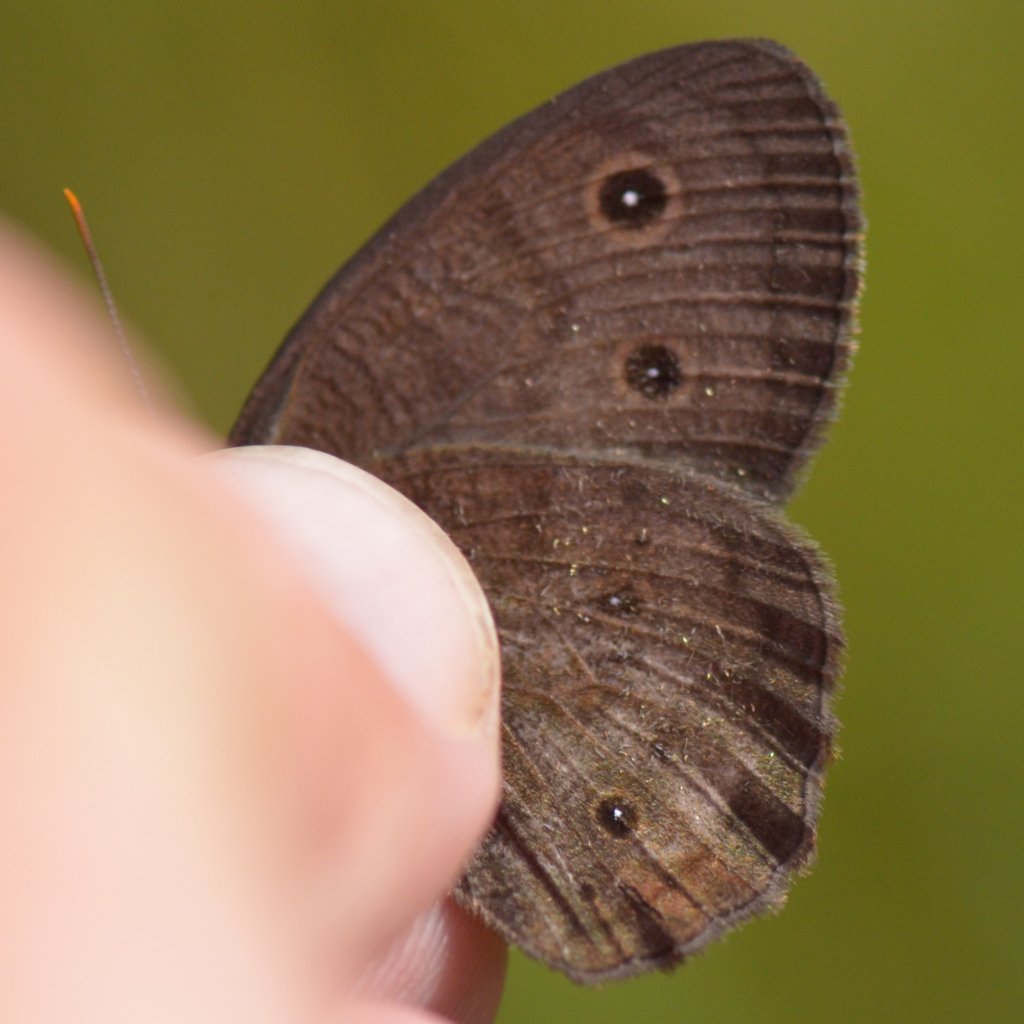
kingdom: Animalia
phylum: Arthropoda
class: Insecta
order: Lepidoptera
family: Nymphalidae
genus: Cercyonis
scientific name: Cercyonis pegala
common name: Common Wood-Nymph
